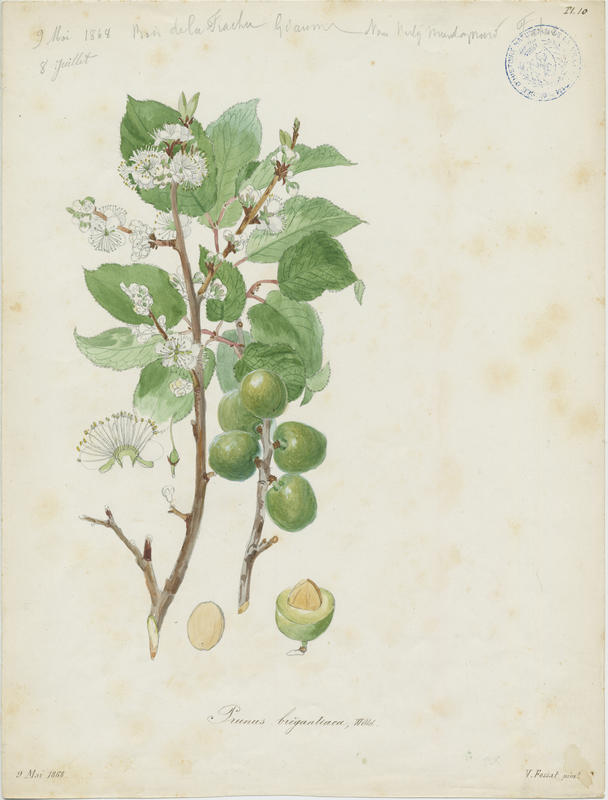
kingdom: Plantae
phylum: Tracheophyta
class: Magnoliopsida
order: Rosales
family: Rosaceae
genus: Prunus
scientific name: Prunus brigantina
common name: Briançon apricot
